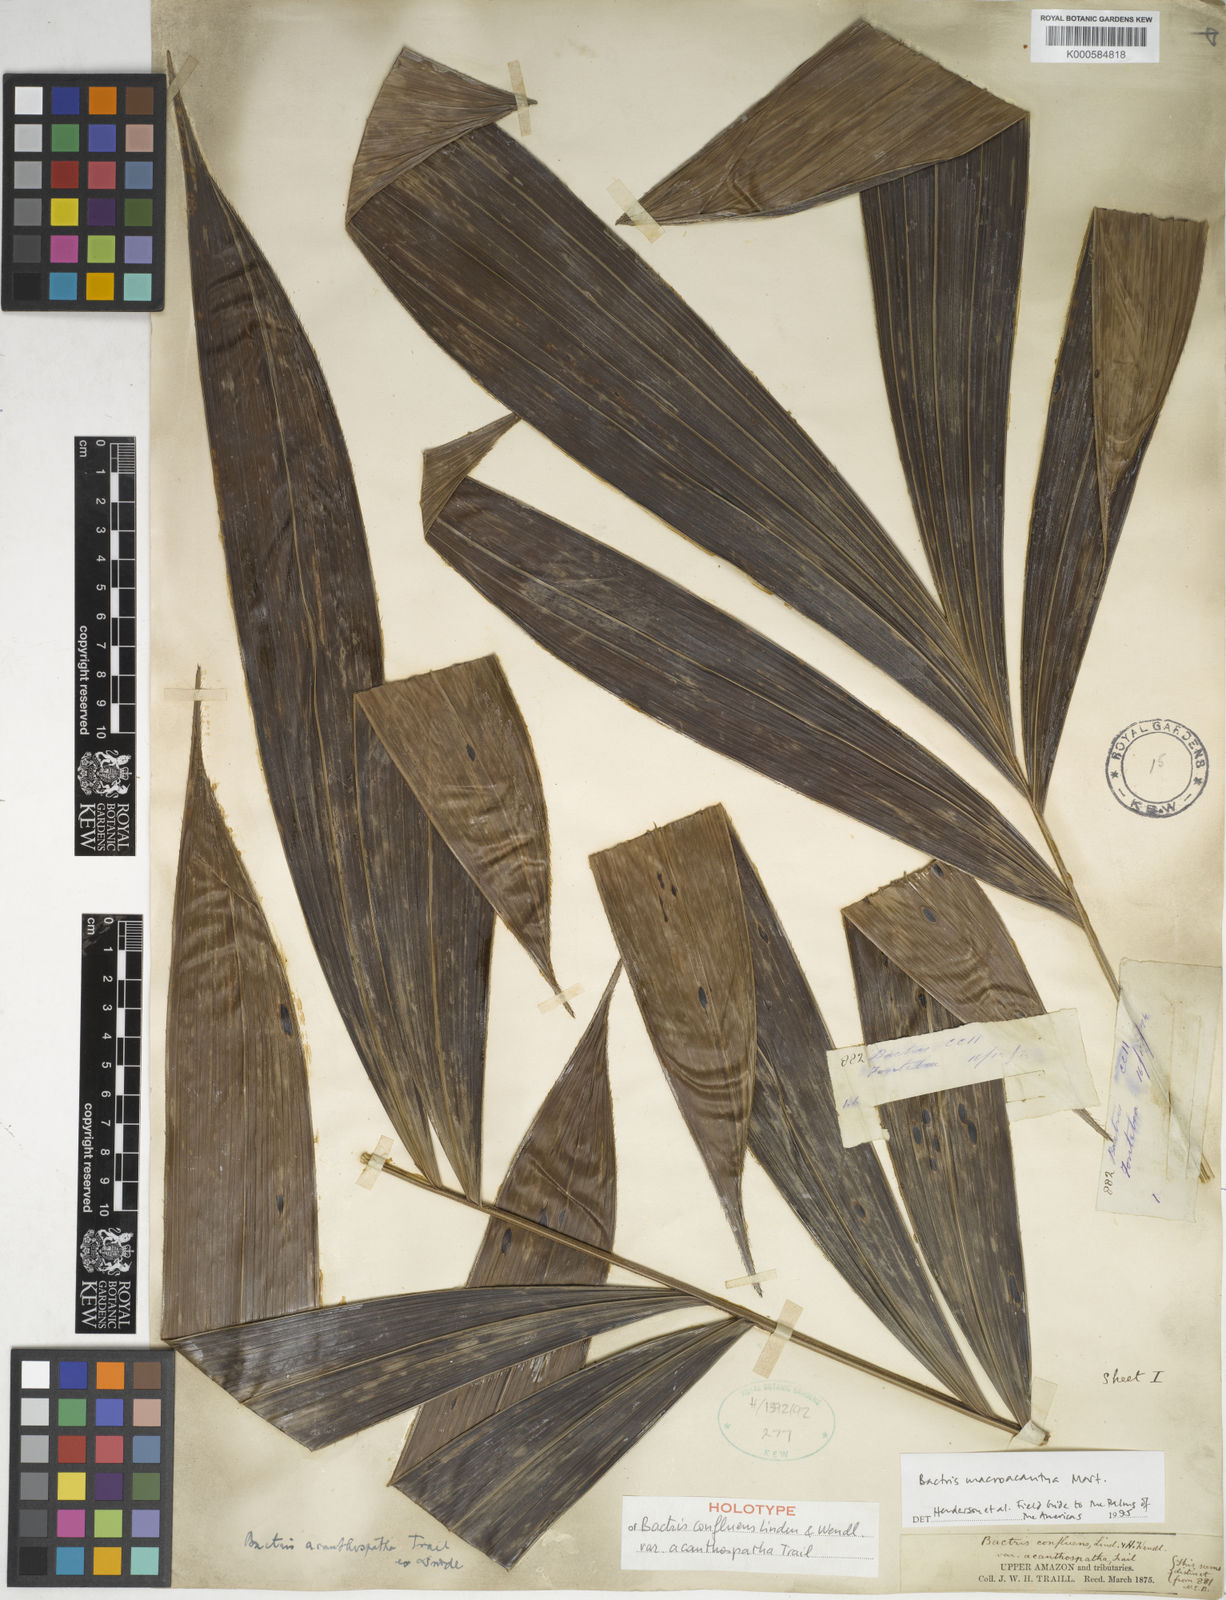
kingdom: Plantae
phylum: Tracheophyta
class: Liliopsida
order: Arecales
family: Arecaceae
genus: Bactris
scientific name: Bactris macroacantha
